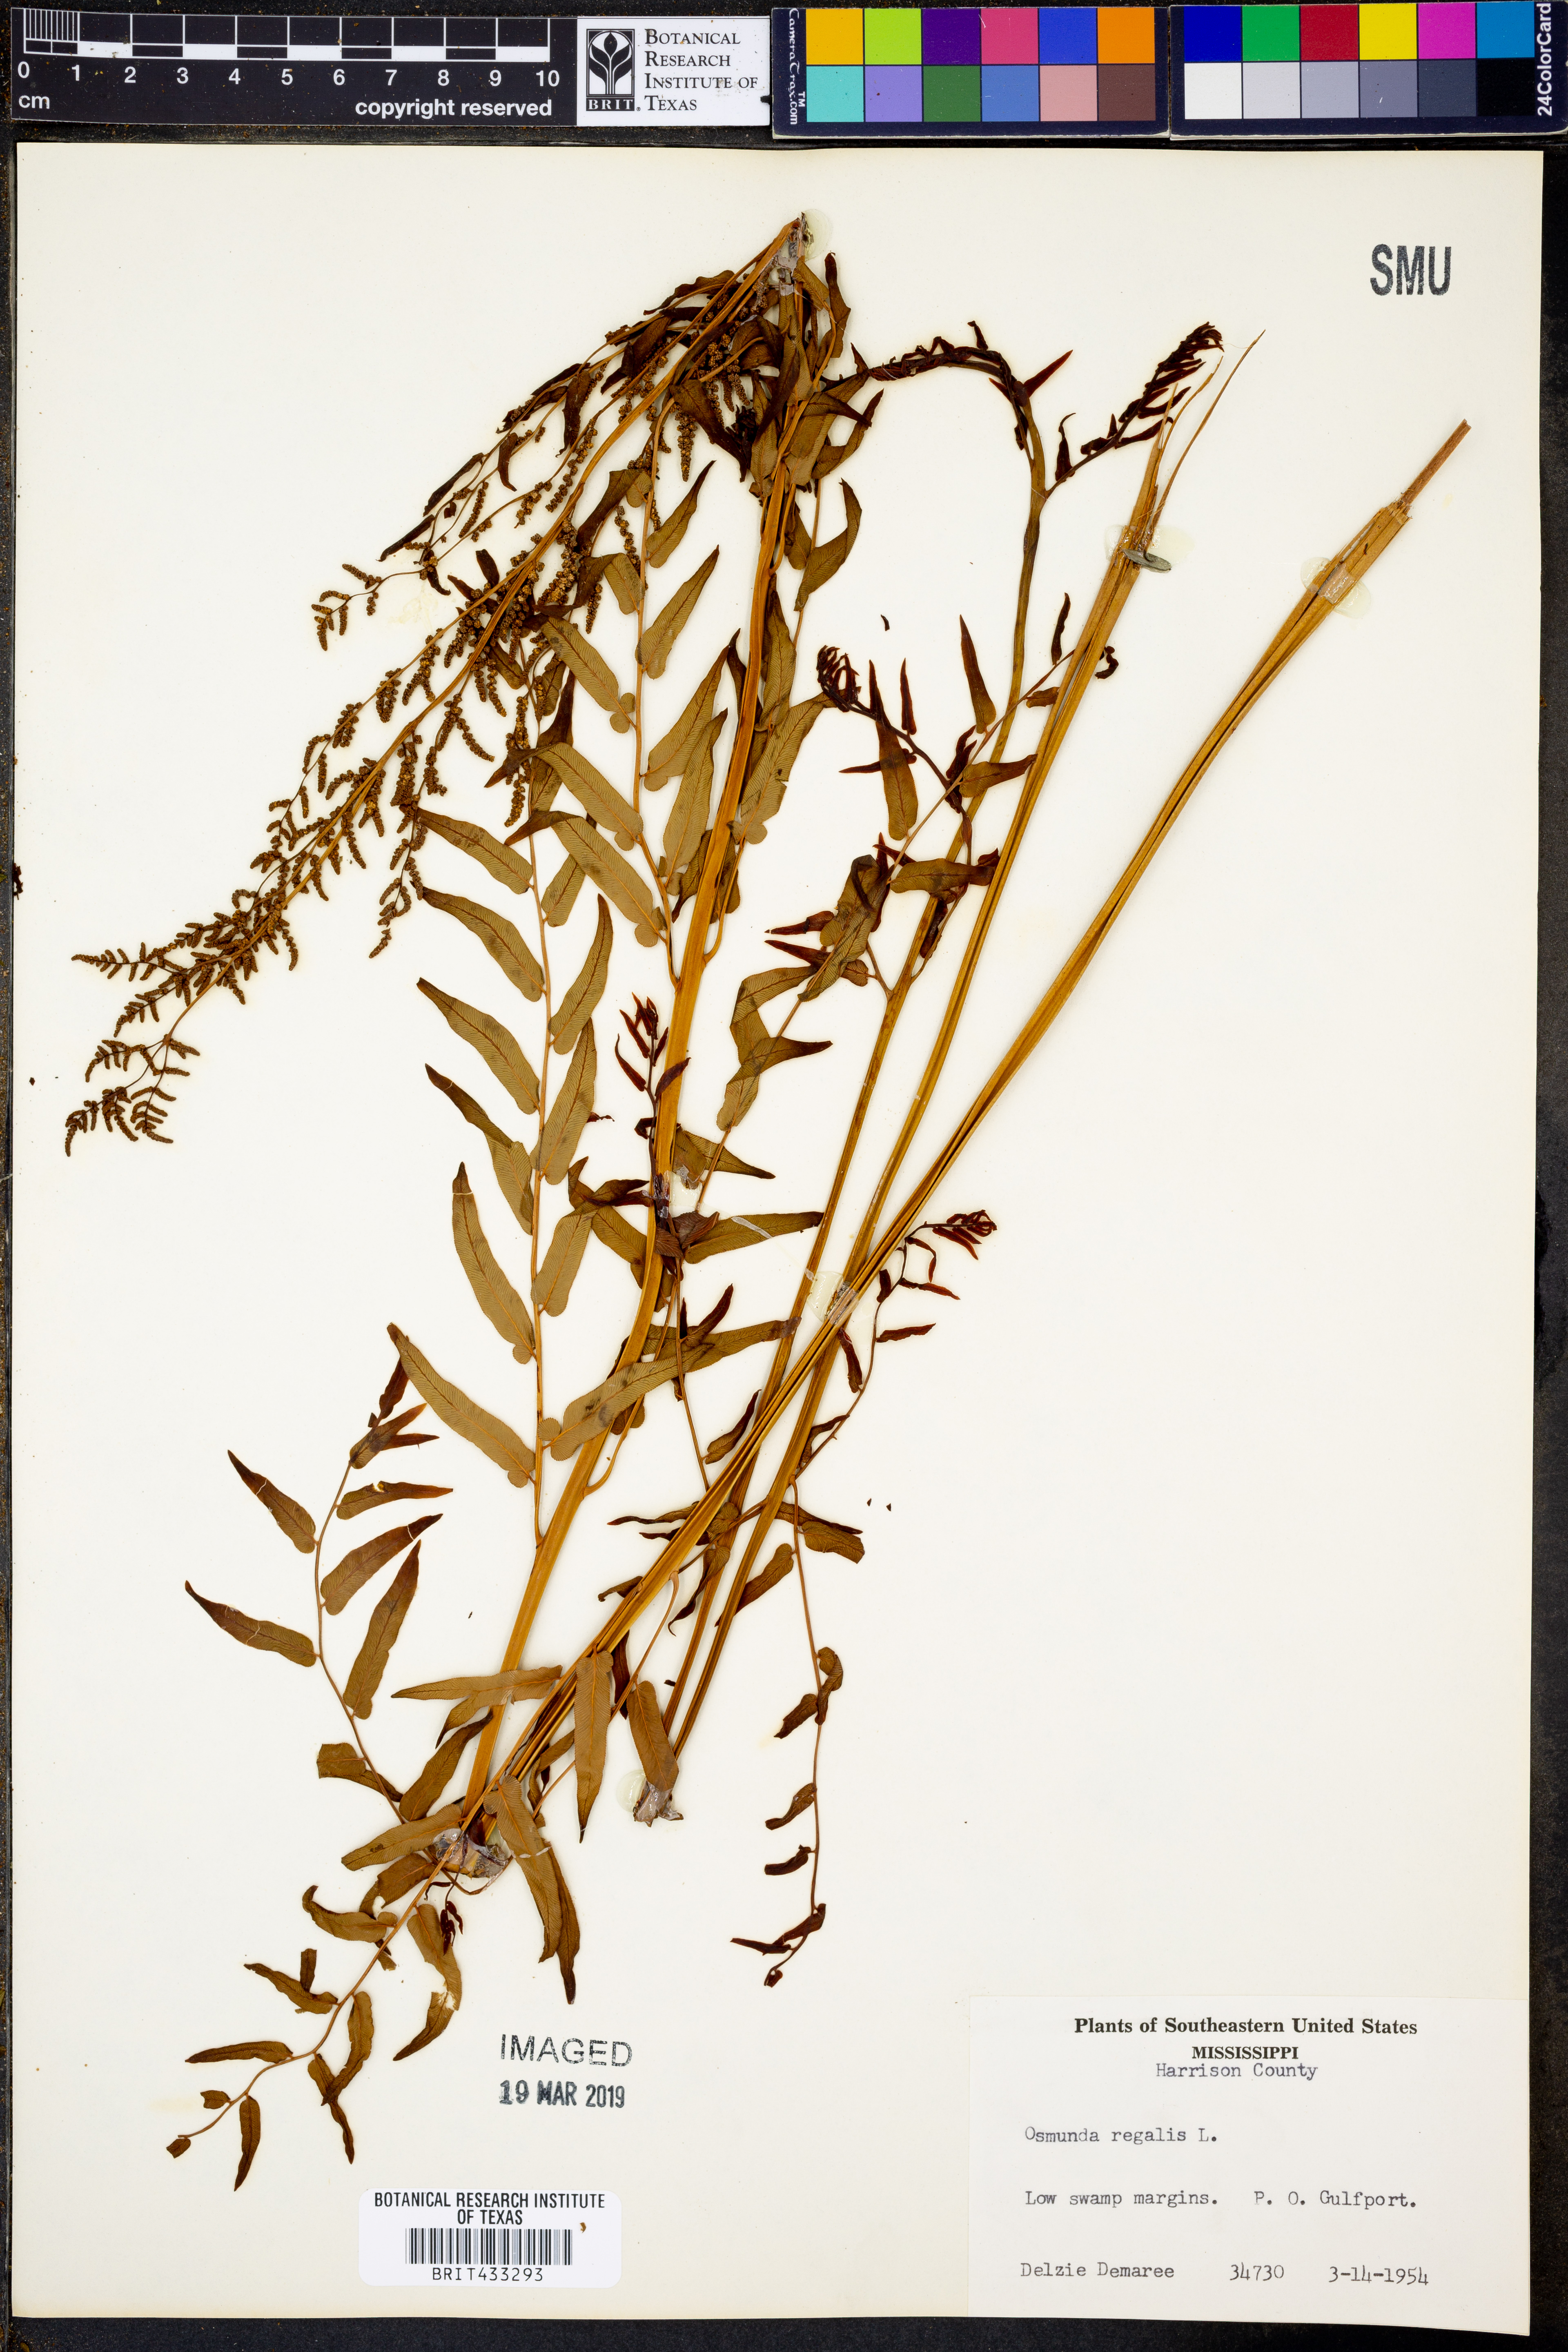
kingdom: Plantae
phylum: Tracheophyta
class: Polypodiopsida
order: Osmundales
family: Osmundaceae
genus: Osmunda
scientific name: Osmunda regalis
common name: Royal fern
